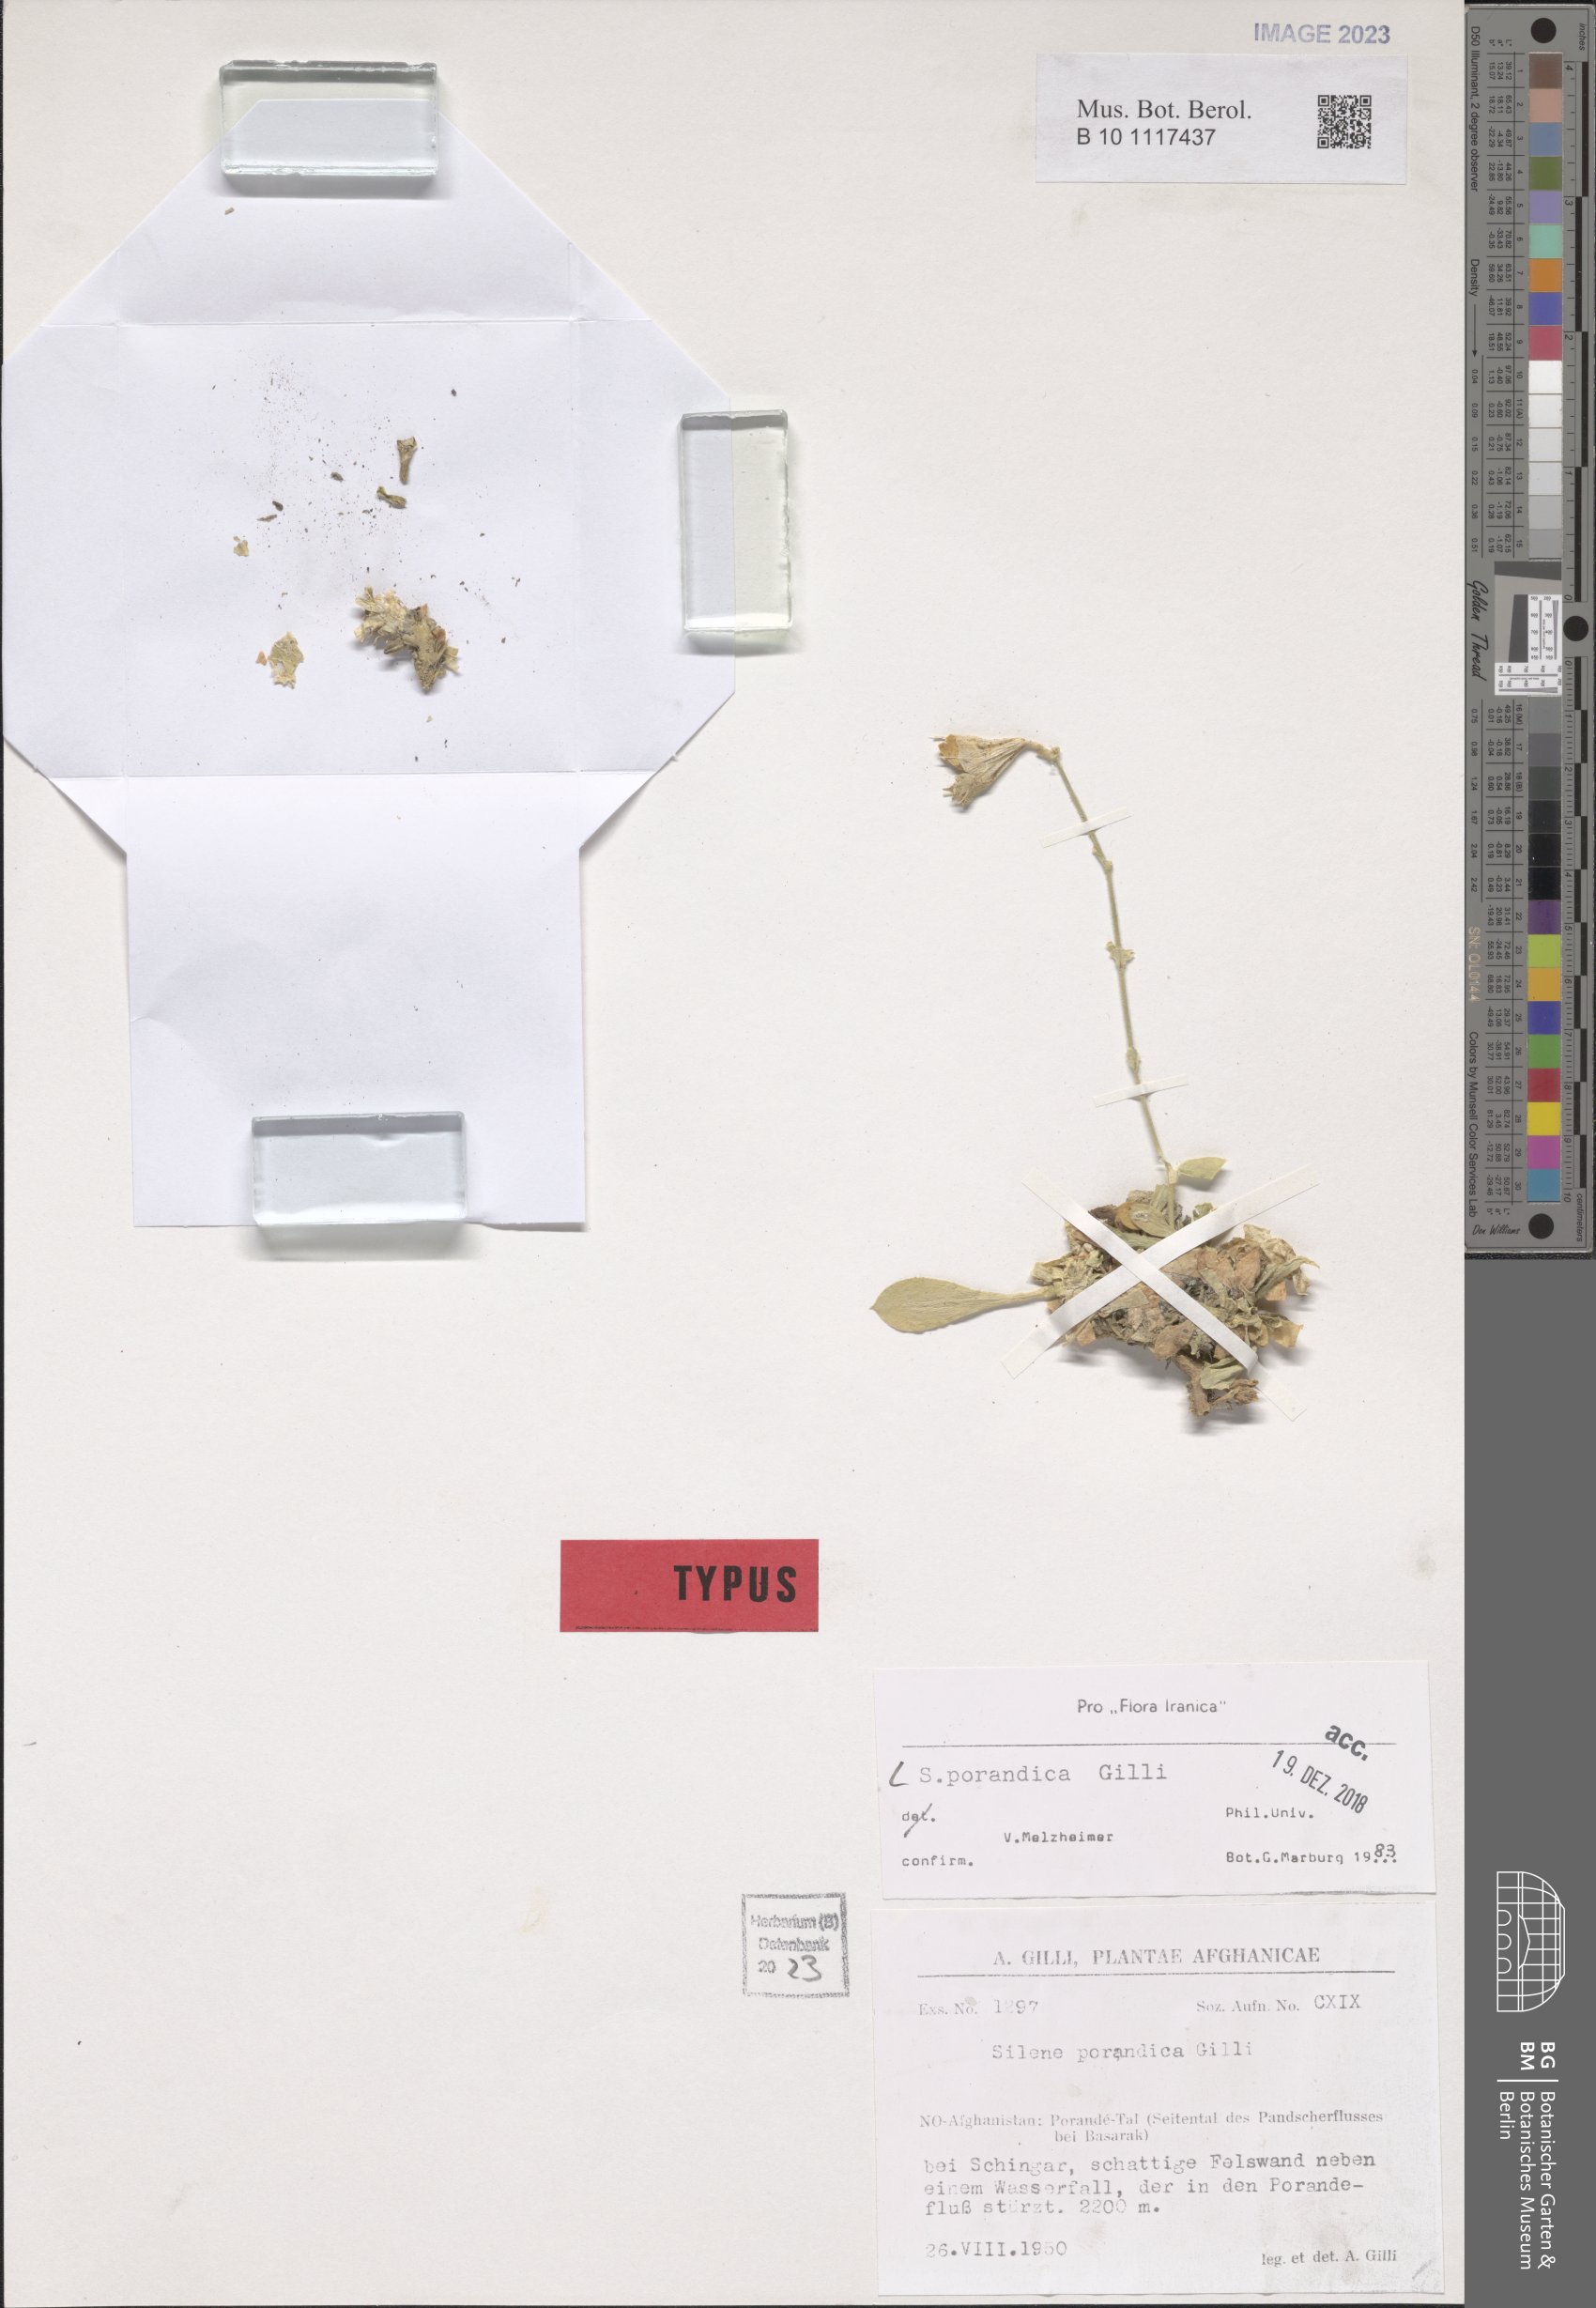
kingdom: Plantae
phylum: Tracheophyta
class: Magnoliopsida
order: Caryophyllales
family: Caryophyllaceae
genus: Silene
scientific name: Silene porandica
